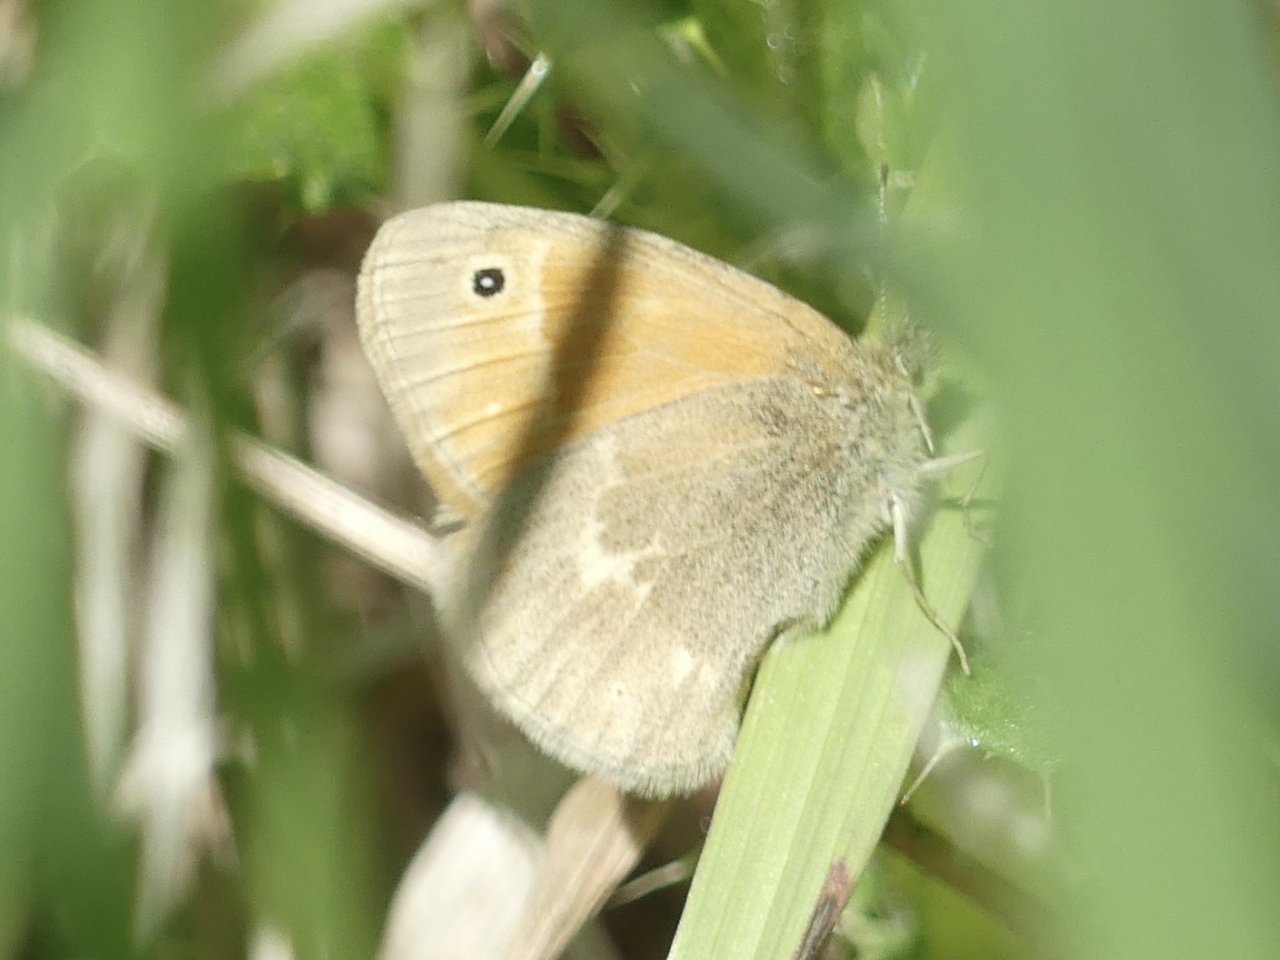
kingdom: Animalia
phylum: Arthropoda
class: Insecta
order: Lepidoptera
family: Nymphalidae
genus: Coenonympha
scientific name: Coenonympha tullia
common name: Large Heath
